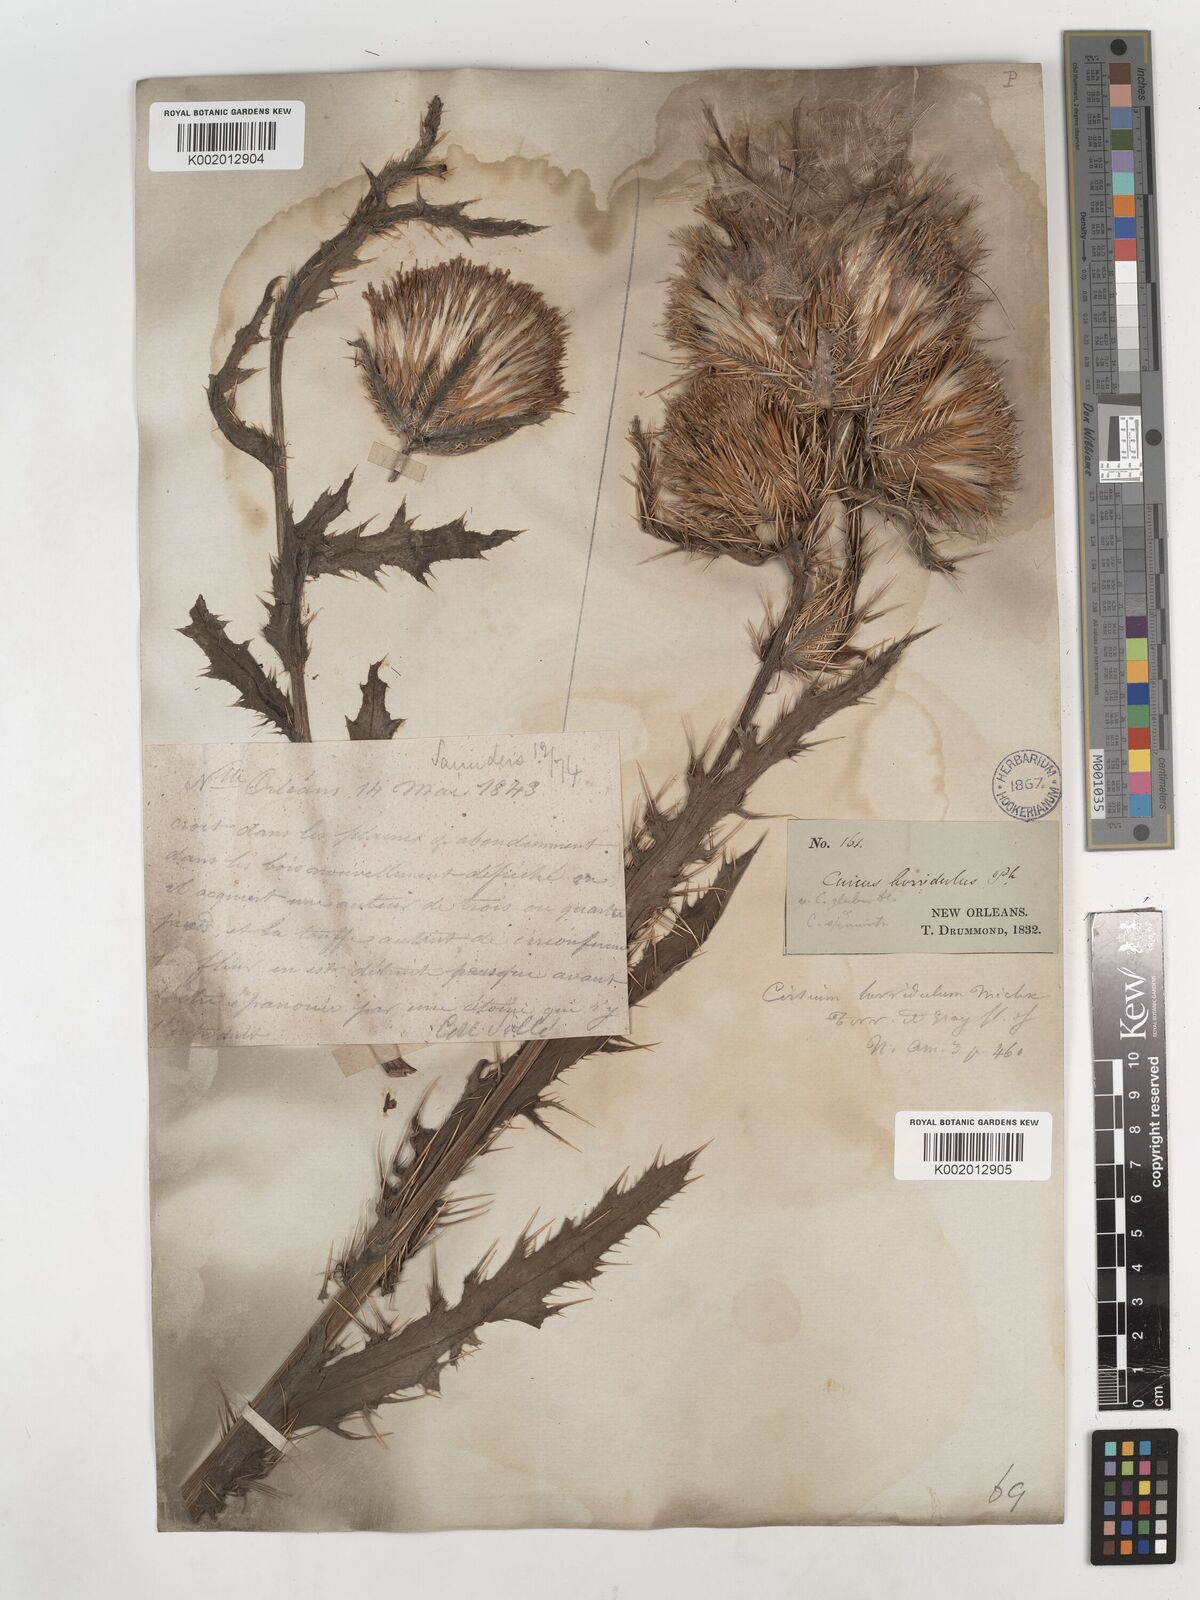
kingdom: Plantae
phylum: Tracheophyta
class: Magnoliopsida
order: Asterales
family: Asteraceae
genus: Cirsium
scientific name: Cirsium horridulum
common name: Bristly thistle
